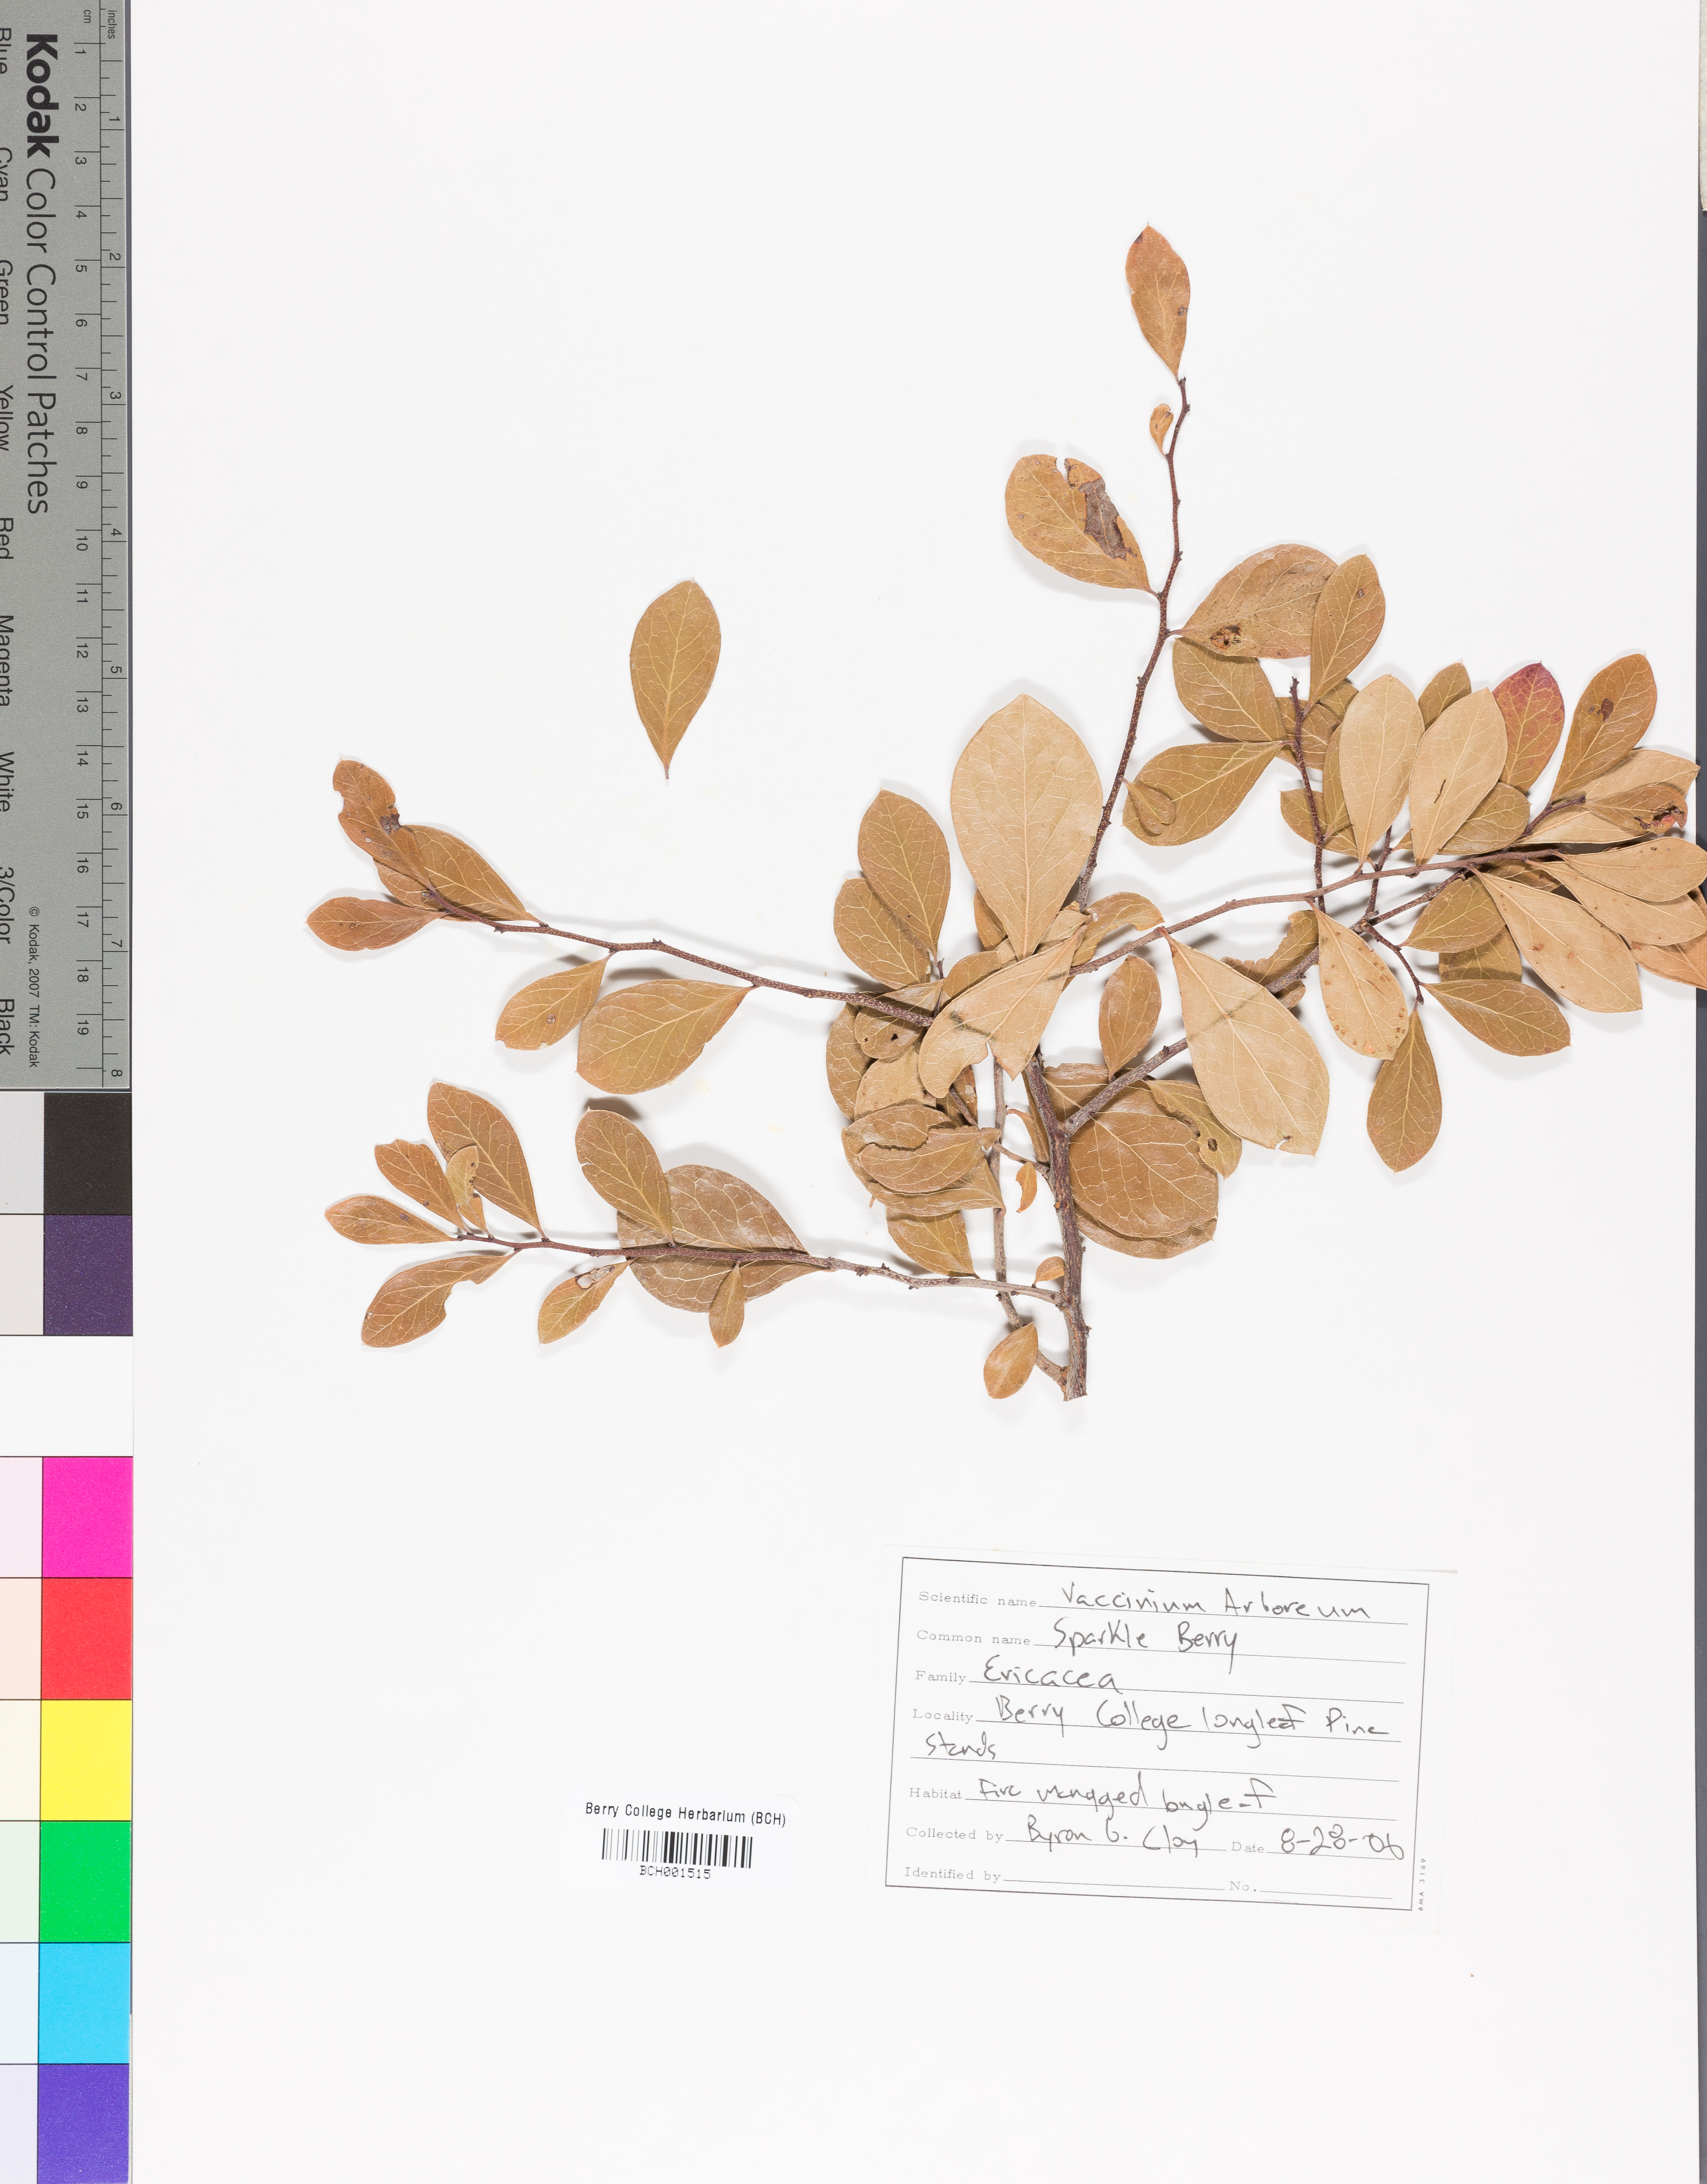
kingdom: Plantae
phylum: Tracheophyta
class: Magnoliopsida
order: Ericales
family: Ericaceae
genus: Vaccinium
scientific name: Vaccinium arboreum
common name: Farkleberry
